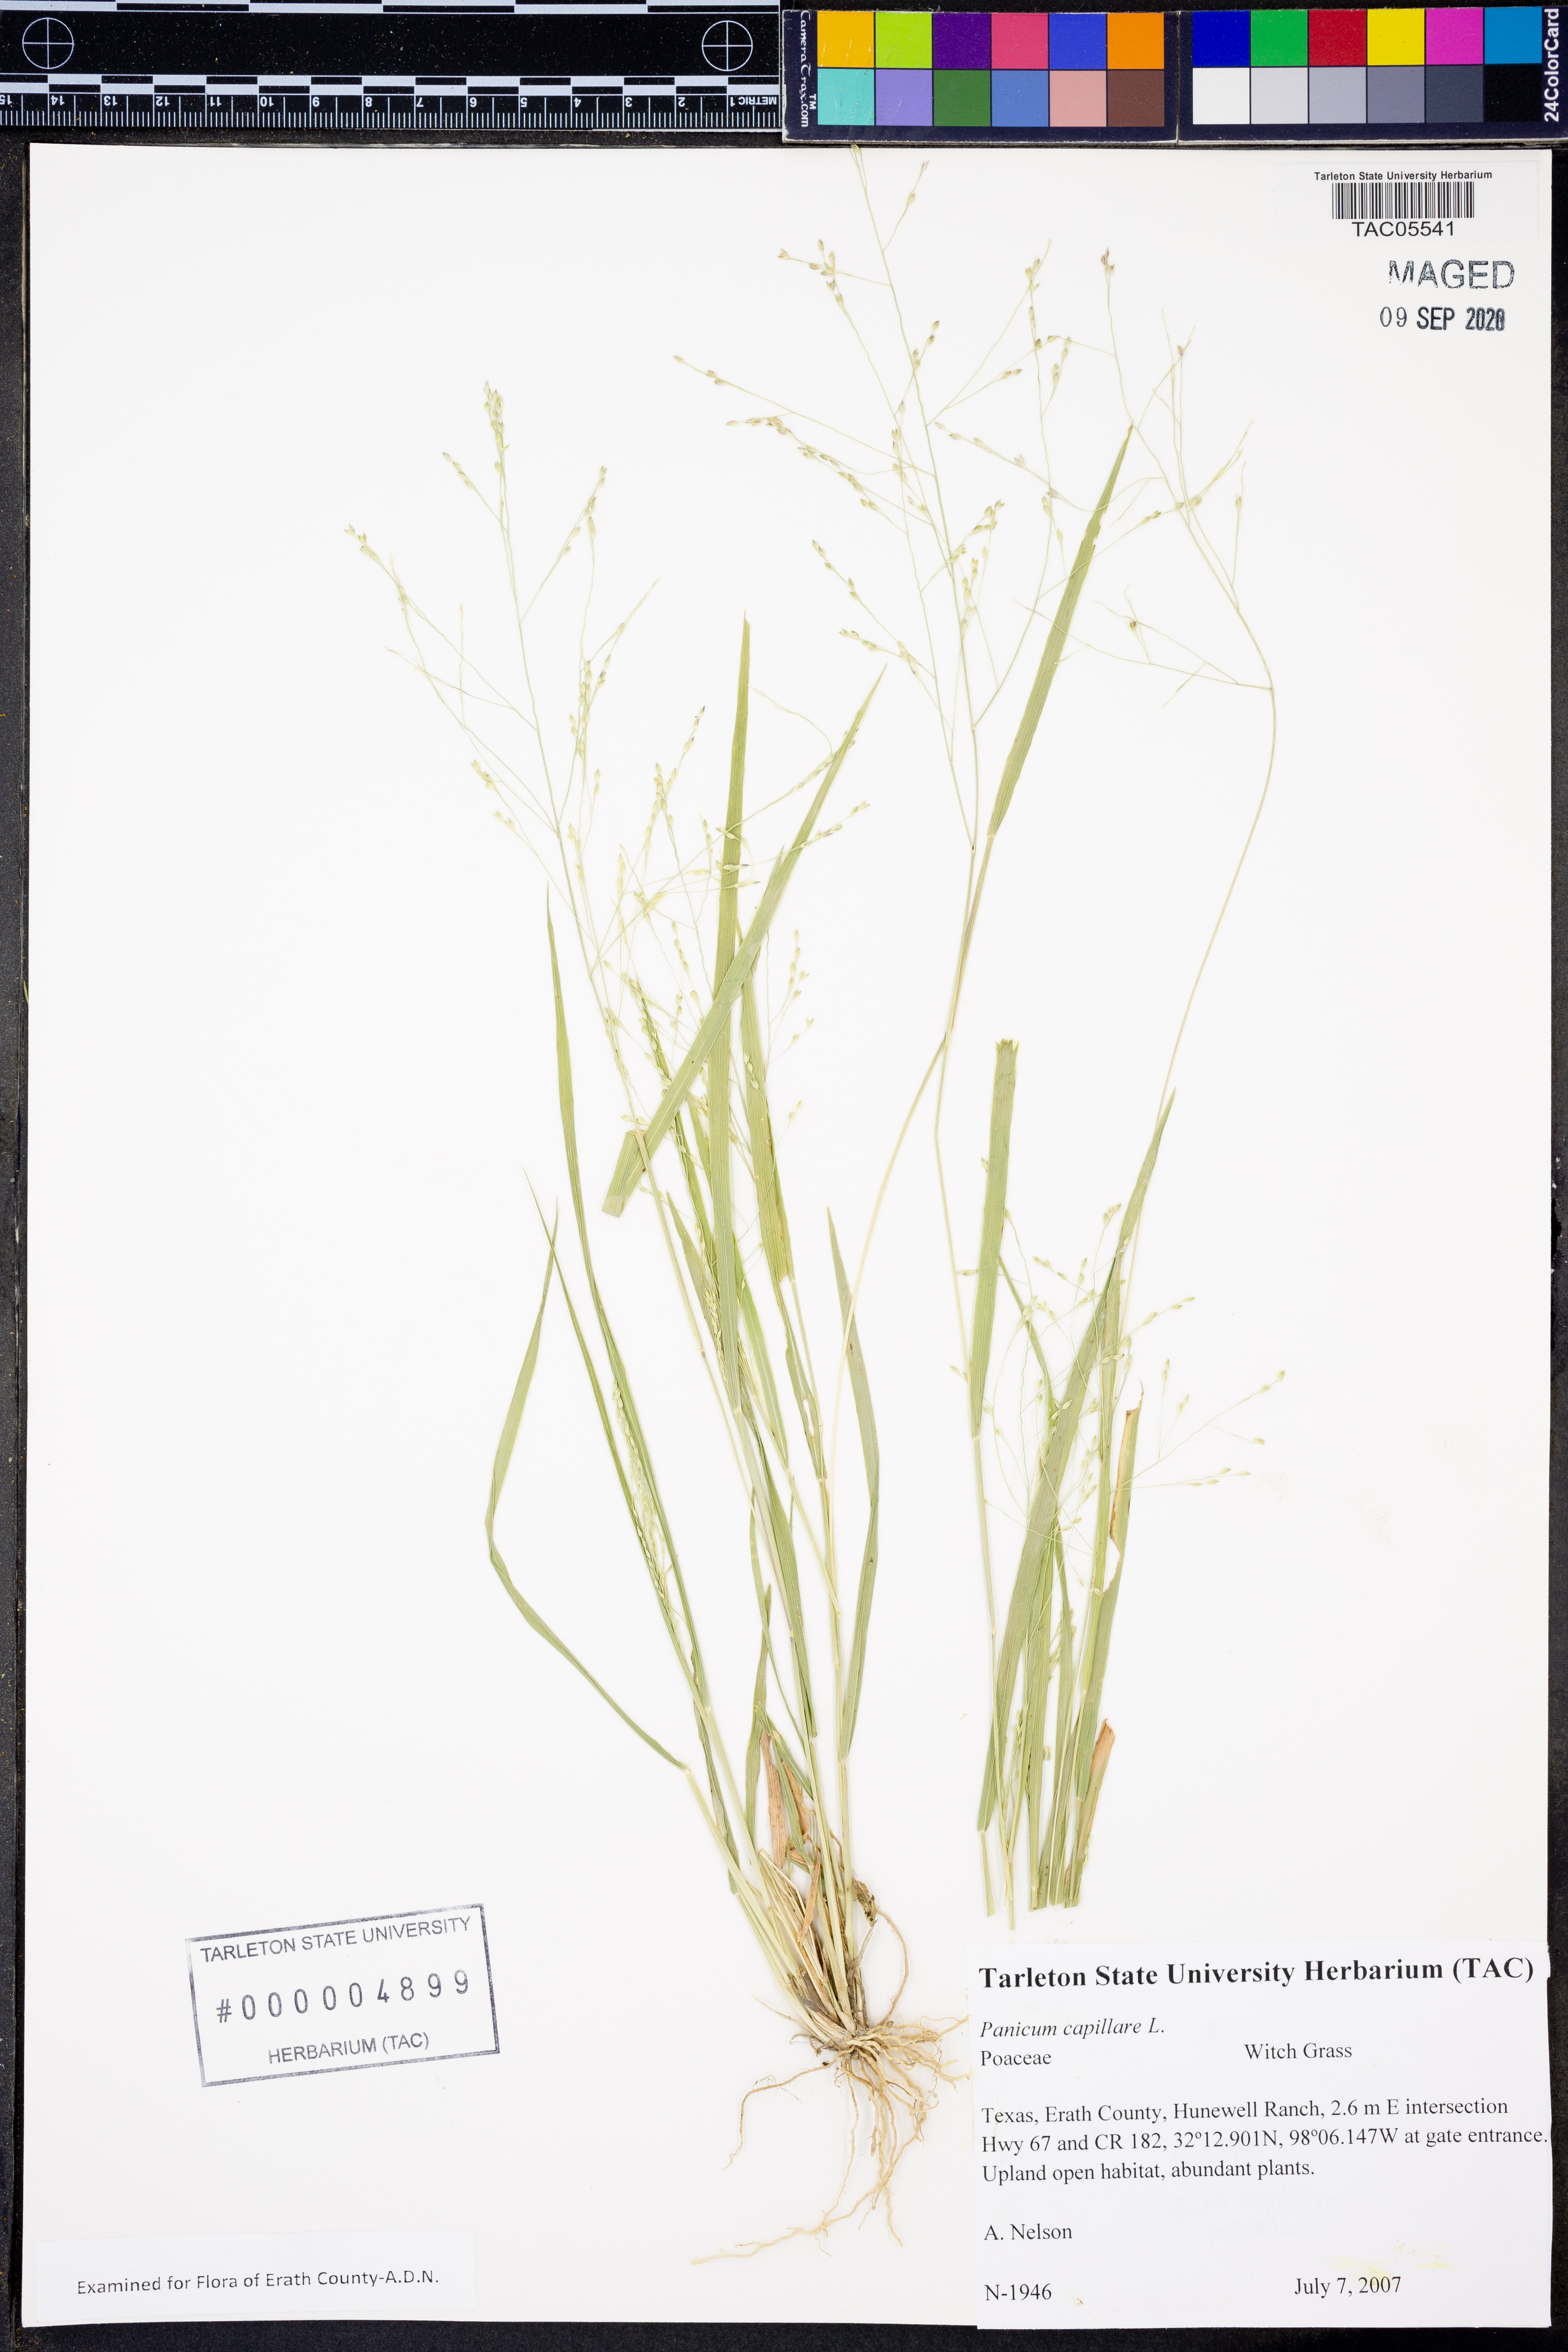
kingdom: Plantae
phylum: Tracheophyta
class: Liliopsida
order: Poales
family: Poaceae
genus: Panicum
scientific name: Panicum capillare
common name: Witch-grass
